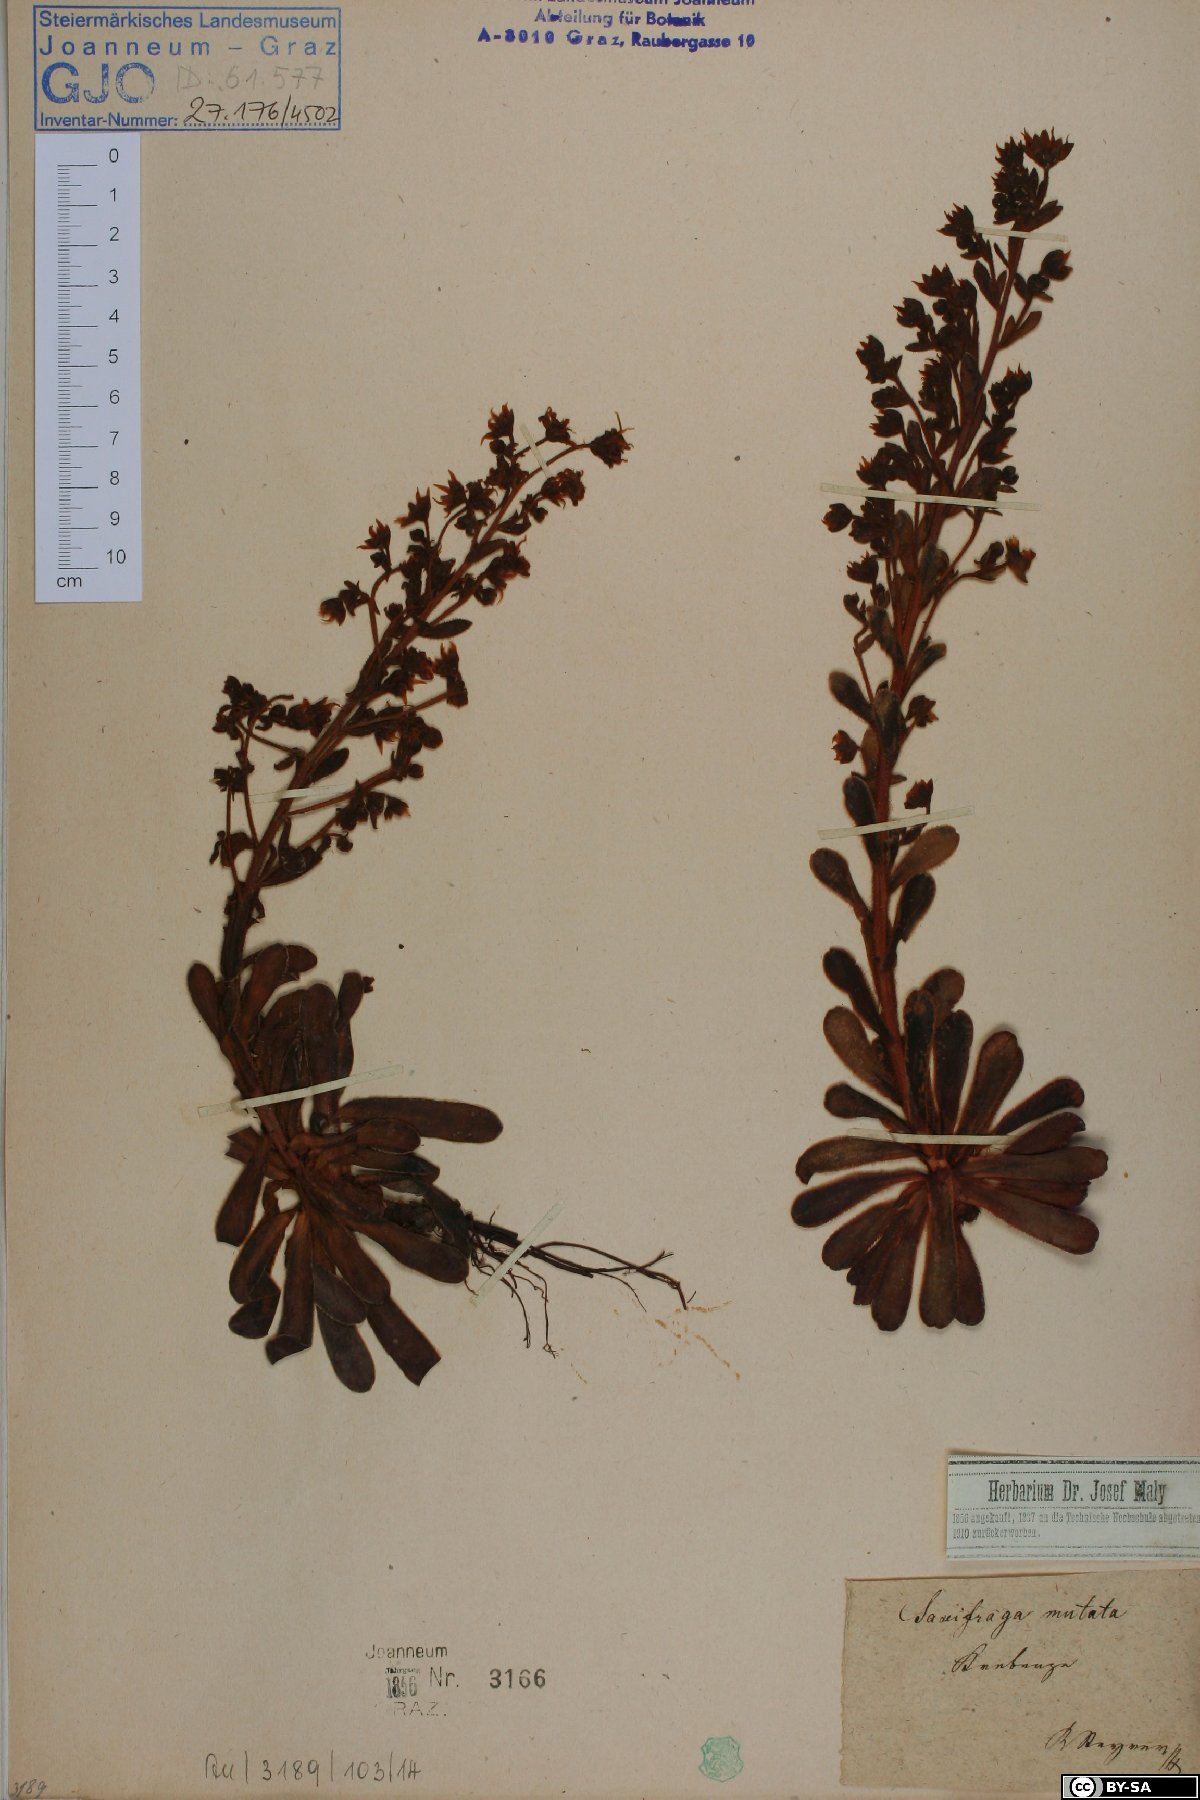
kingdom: Plantae
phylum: Tracheophyta
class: Magnoliopsida
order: Saxifragales
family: Saxifragaceae
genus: Saxifraga
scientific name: Saxifraga mutata
